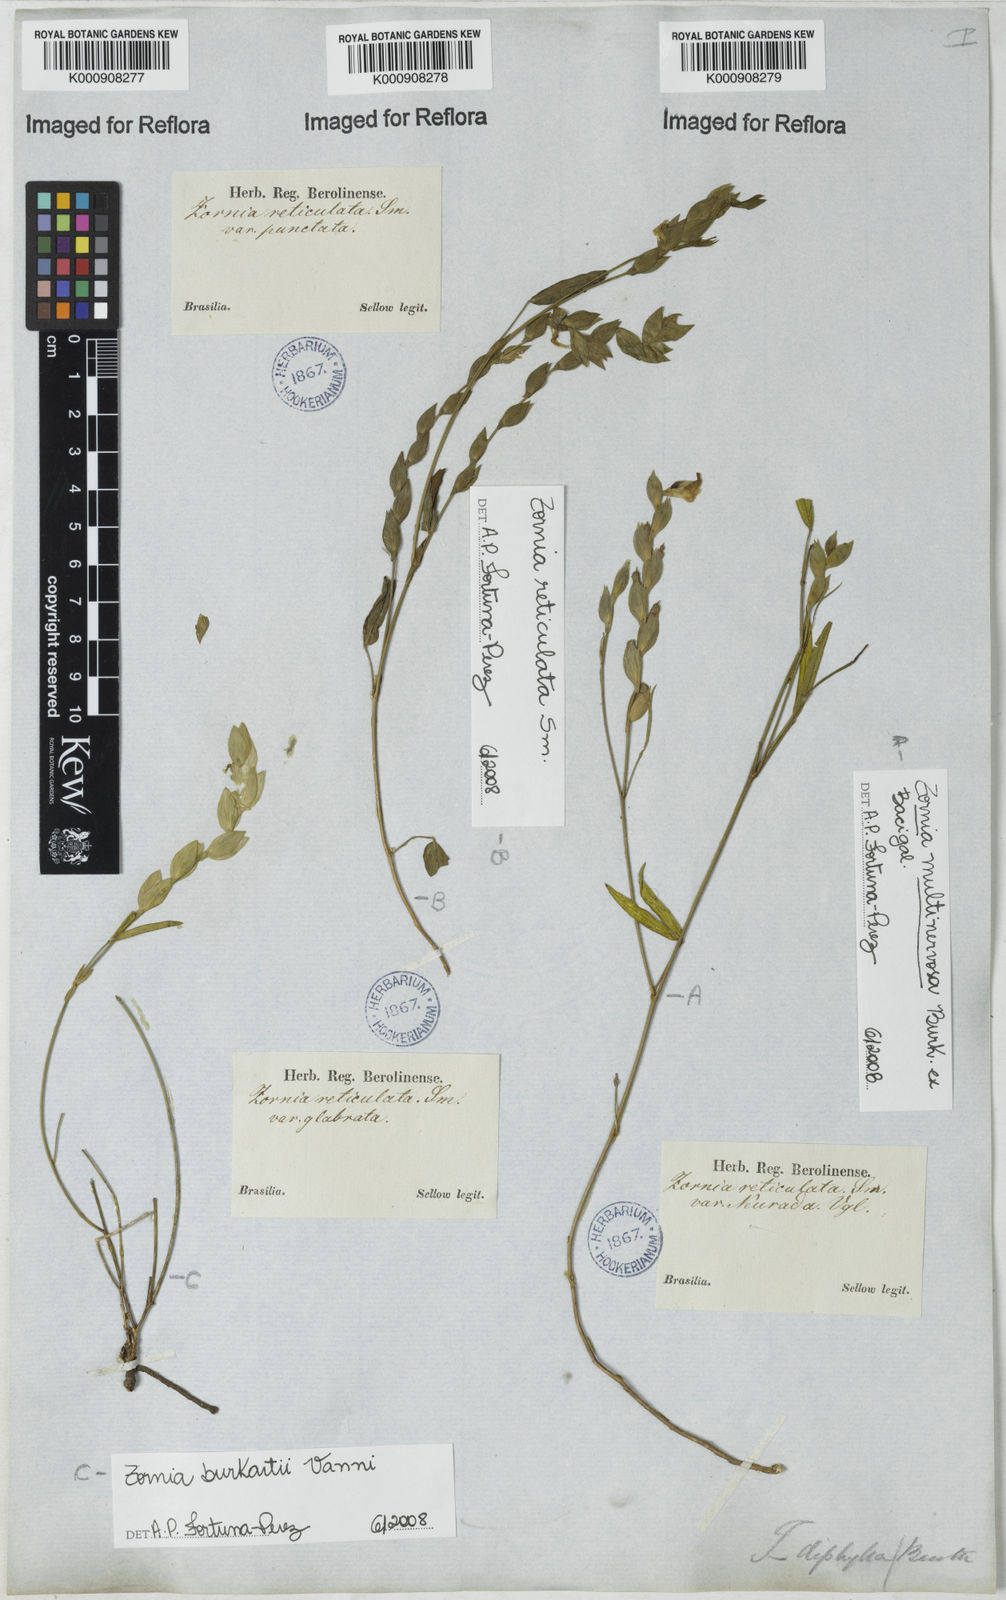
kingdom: Plantae
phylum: Tracheophyta
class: Magnoliopsida
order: Fabales
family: Fabaceae
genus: Zornia
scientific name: Zornia
